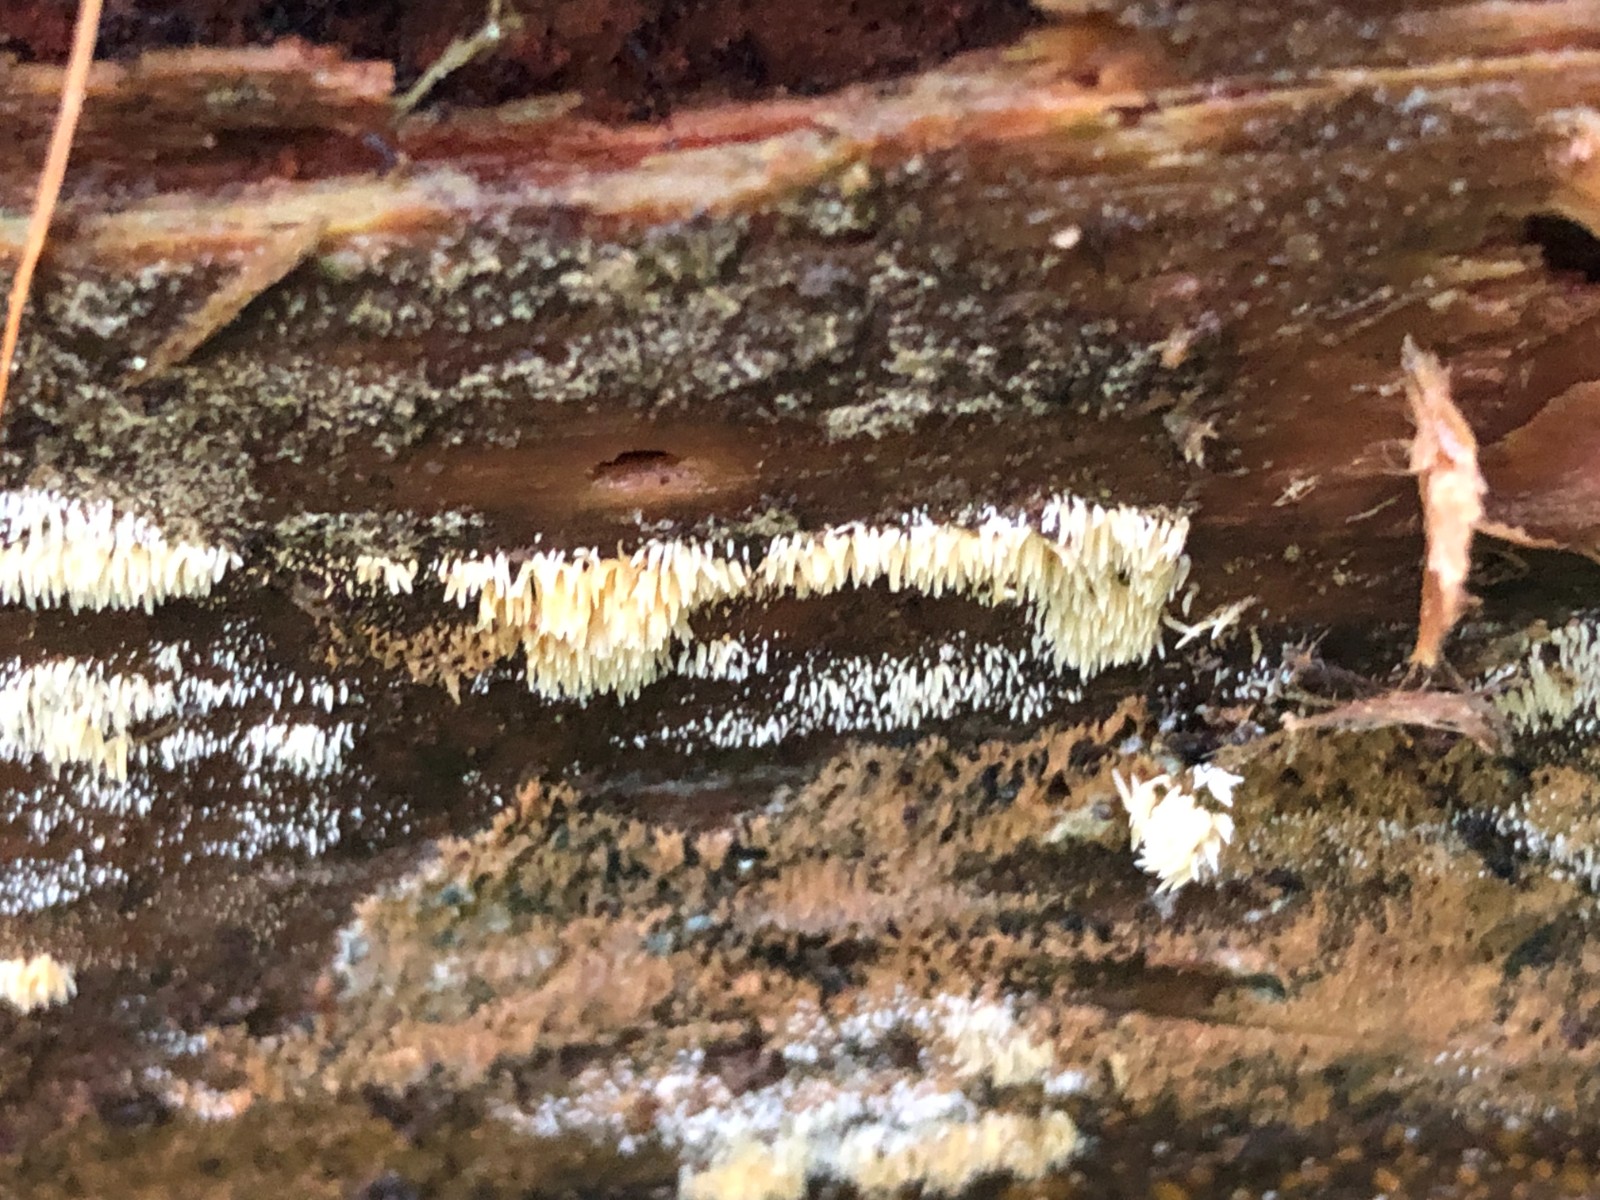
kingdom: Fungi
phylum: Basidiomycota
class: Agaricomycetes
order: Agaricales
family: Clavariaceae
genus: Mucronella
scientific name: Mucronella calva
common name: hvid hængepig
